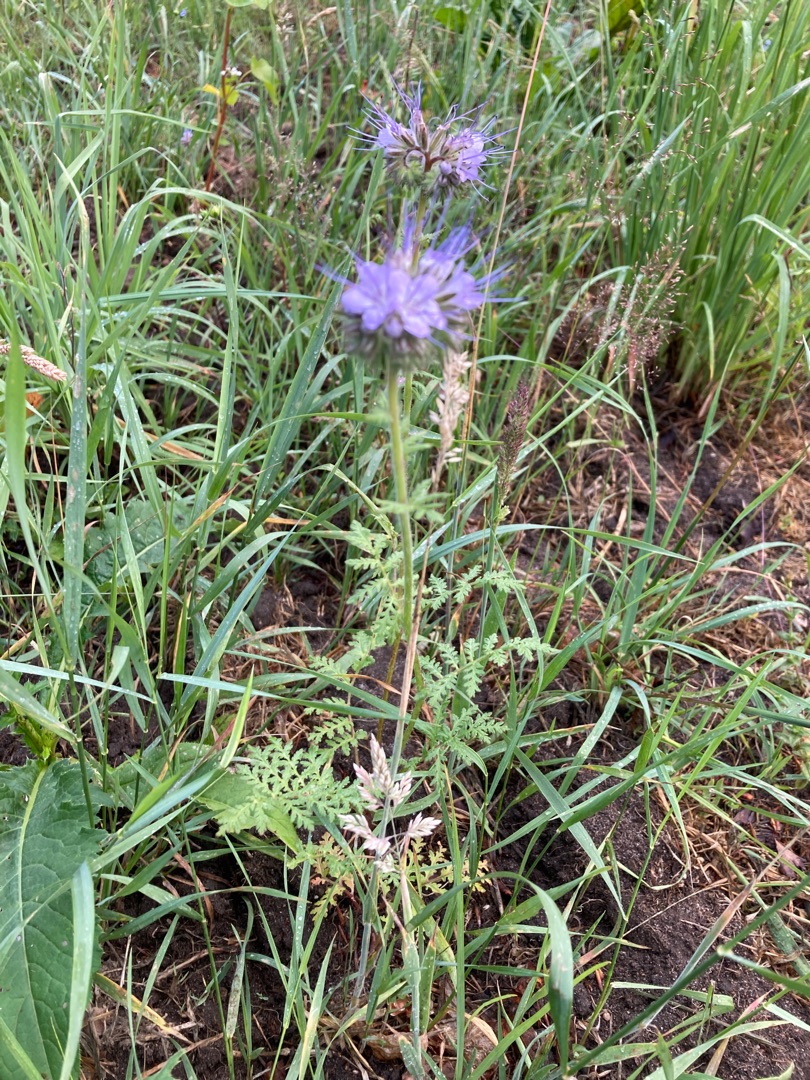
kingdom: Plantae
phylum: Tracheophyta
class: Magnoliopsida
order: Boraginales
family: Hydrophyllaceae
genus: Phacelia
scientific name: Phacelia tanacetifolia
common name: Honningurt
